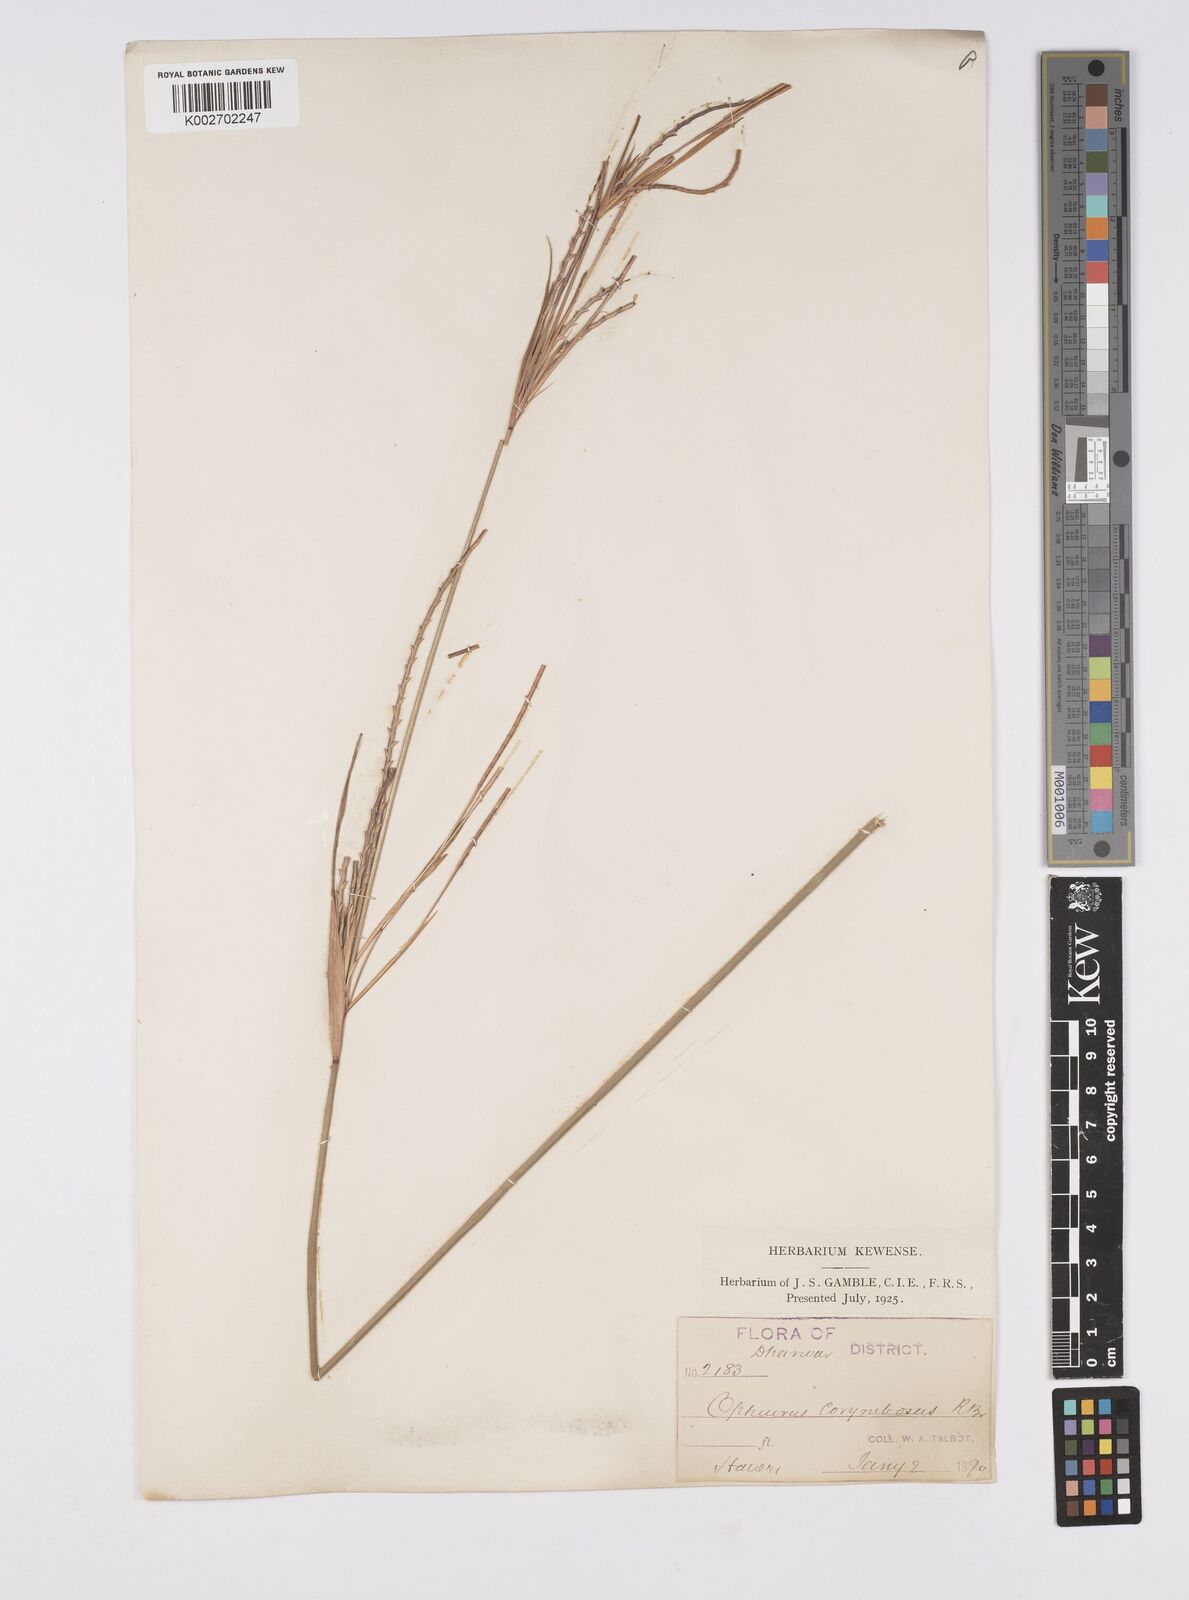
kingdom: Plantae
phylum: Tracheophyta
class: Liliopsida
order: Poales
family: Poaceae
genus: Ophiuros
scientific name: Ophiuros exaltatus
